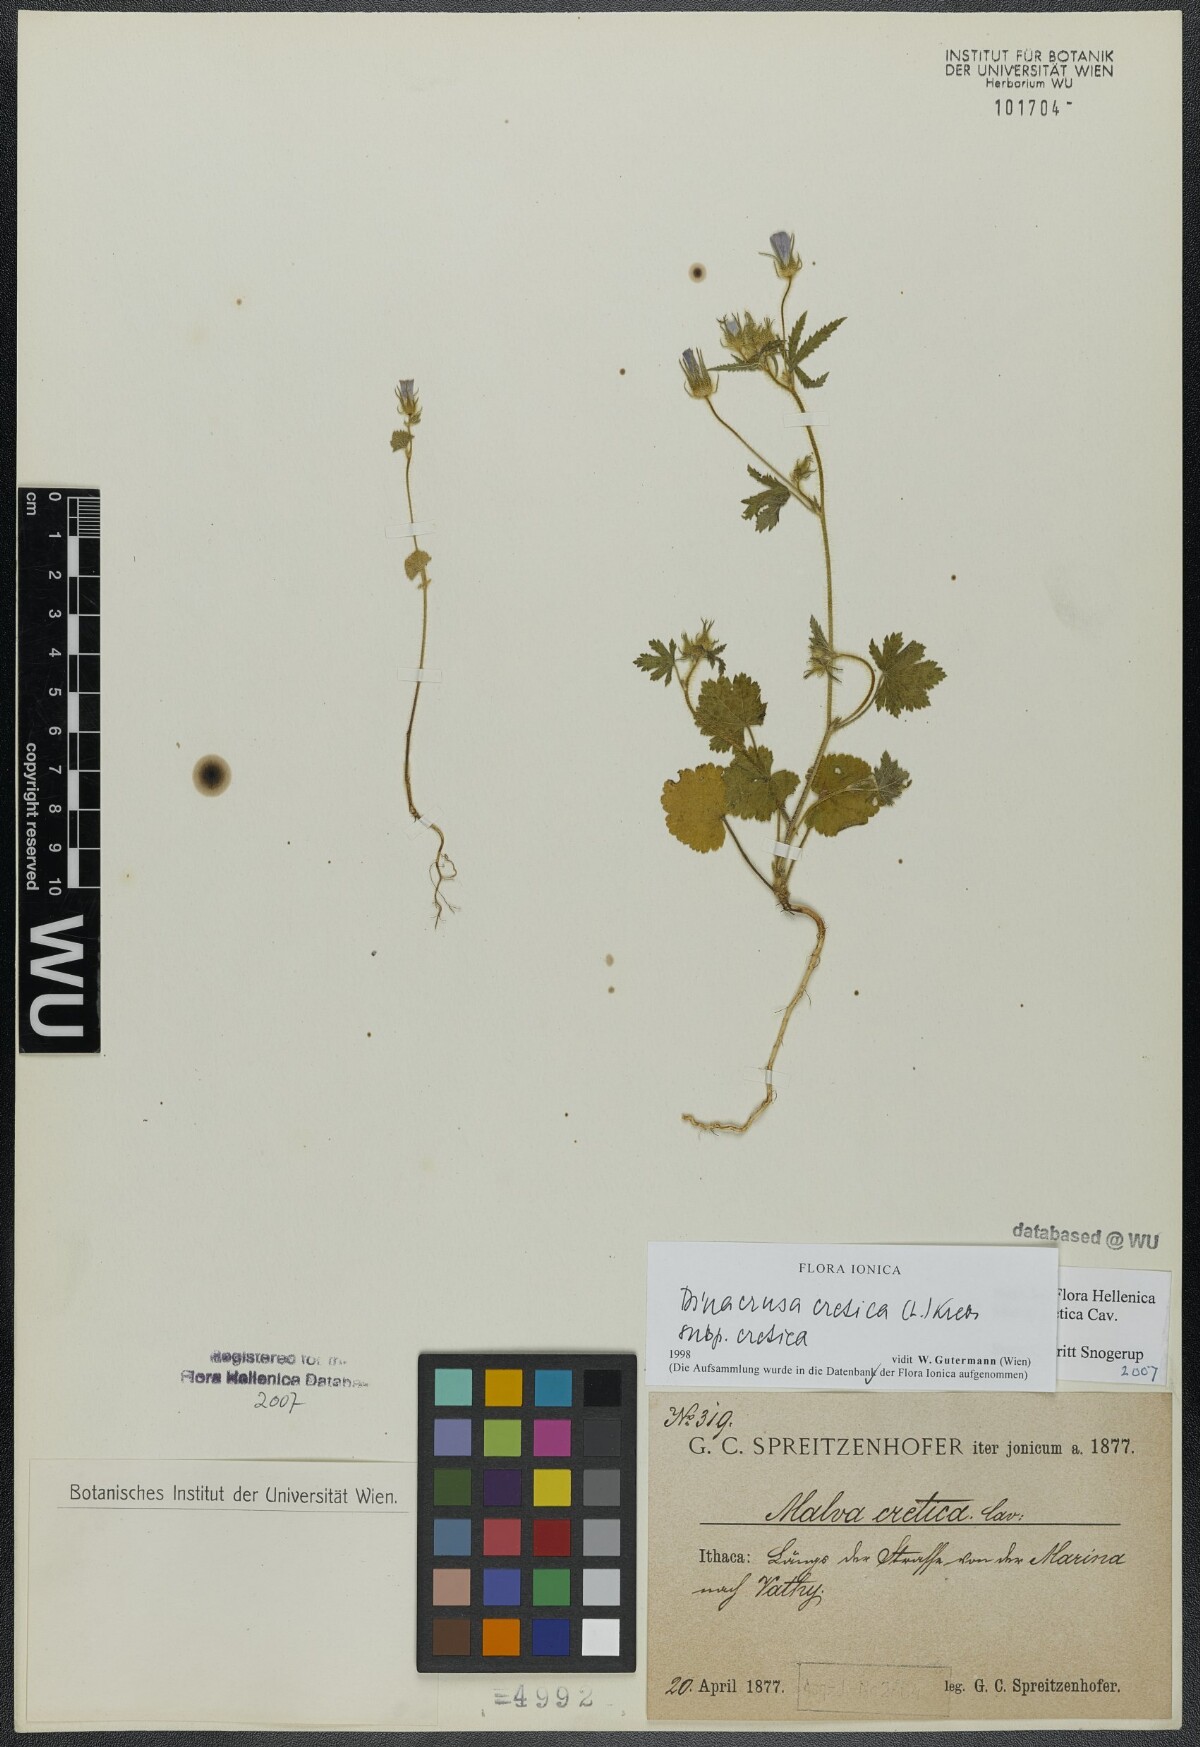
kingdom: Plantae
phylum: Tracheophyta
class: Magnoliopsida
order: Malvales
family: Malvaceae
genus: Malva
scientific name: Malva cretica
